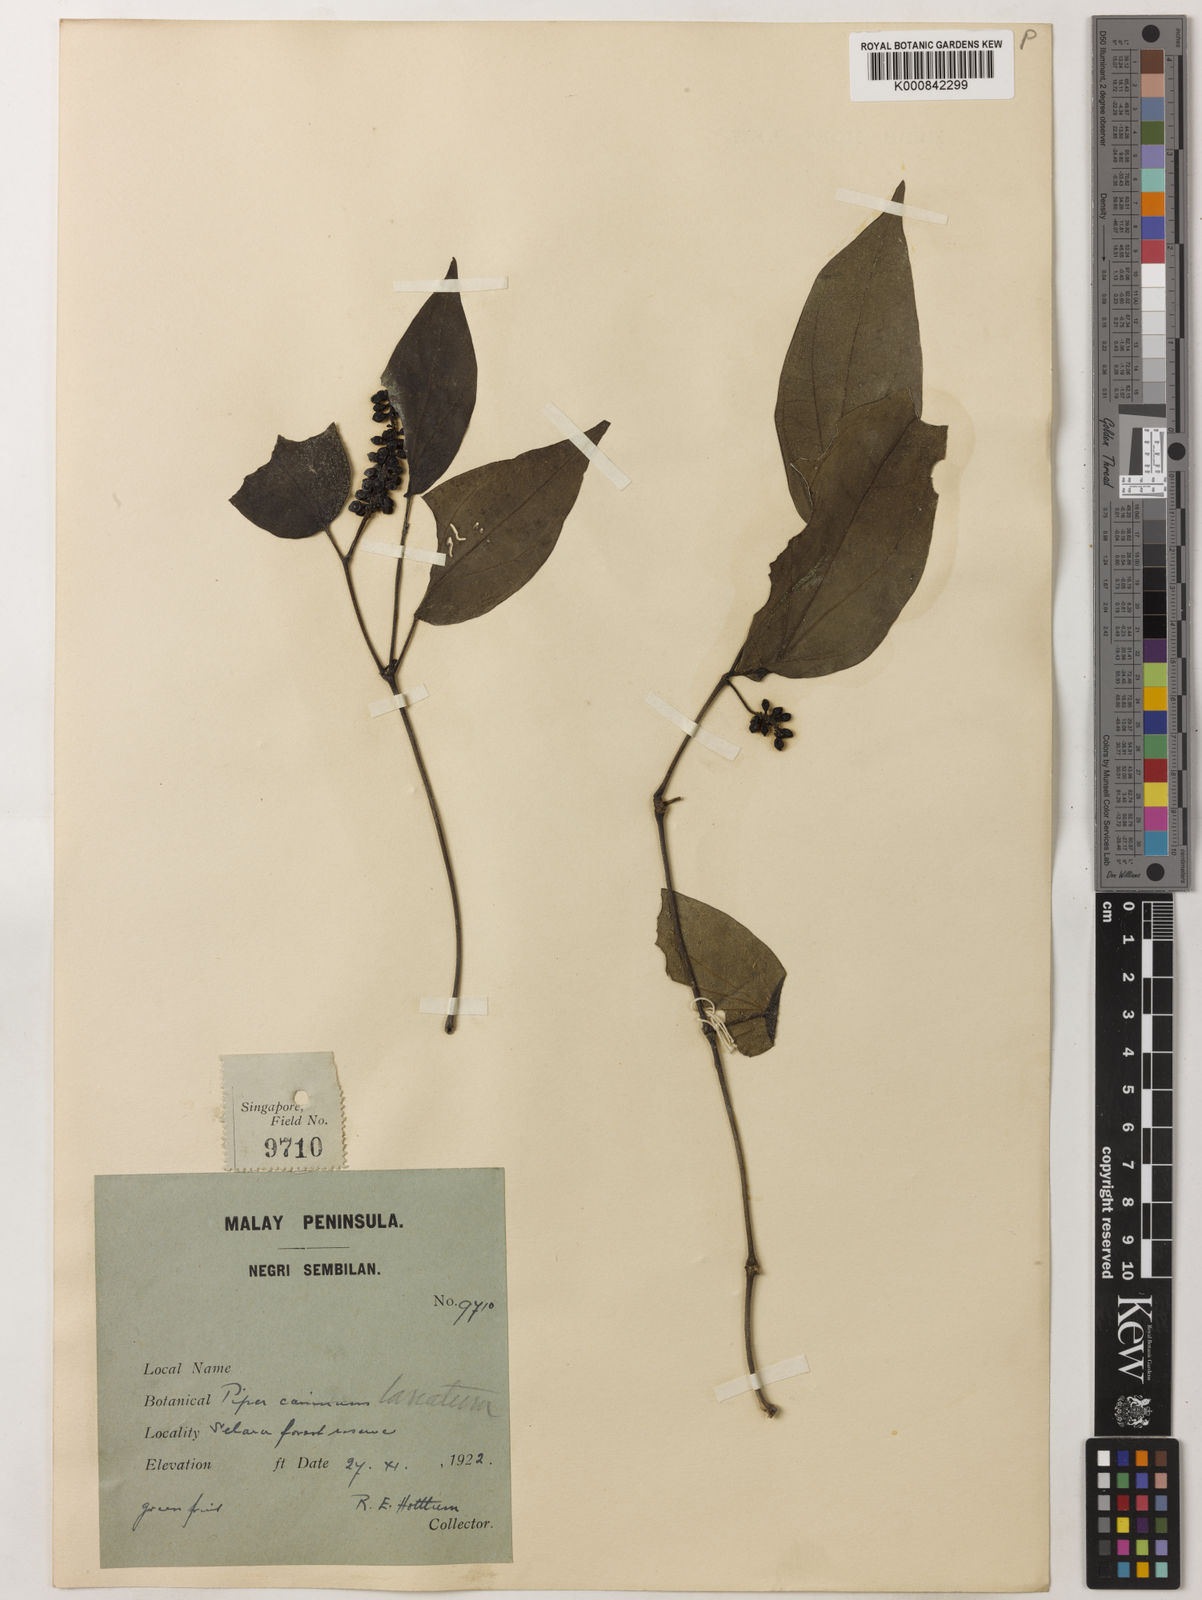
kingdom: Plantae
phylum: Tracheophyta
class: Magnoliopsida
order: Piperales
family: Piperaceae
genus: Piper
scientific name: Piper lanatum
